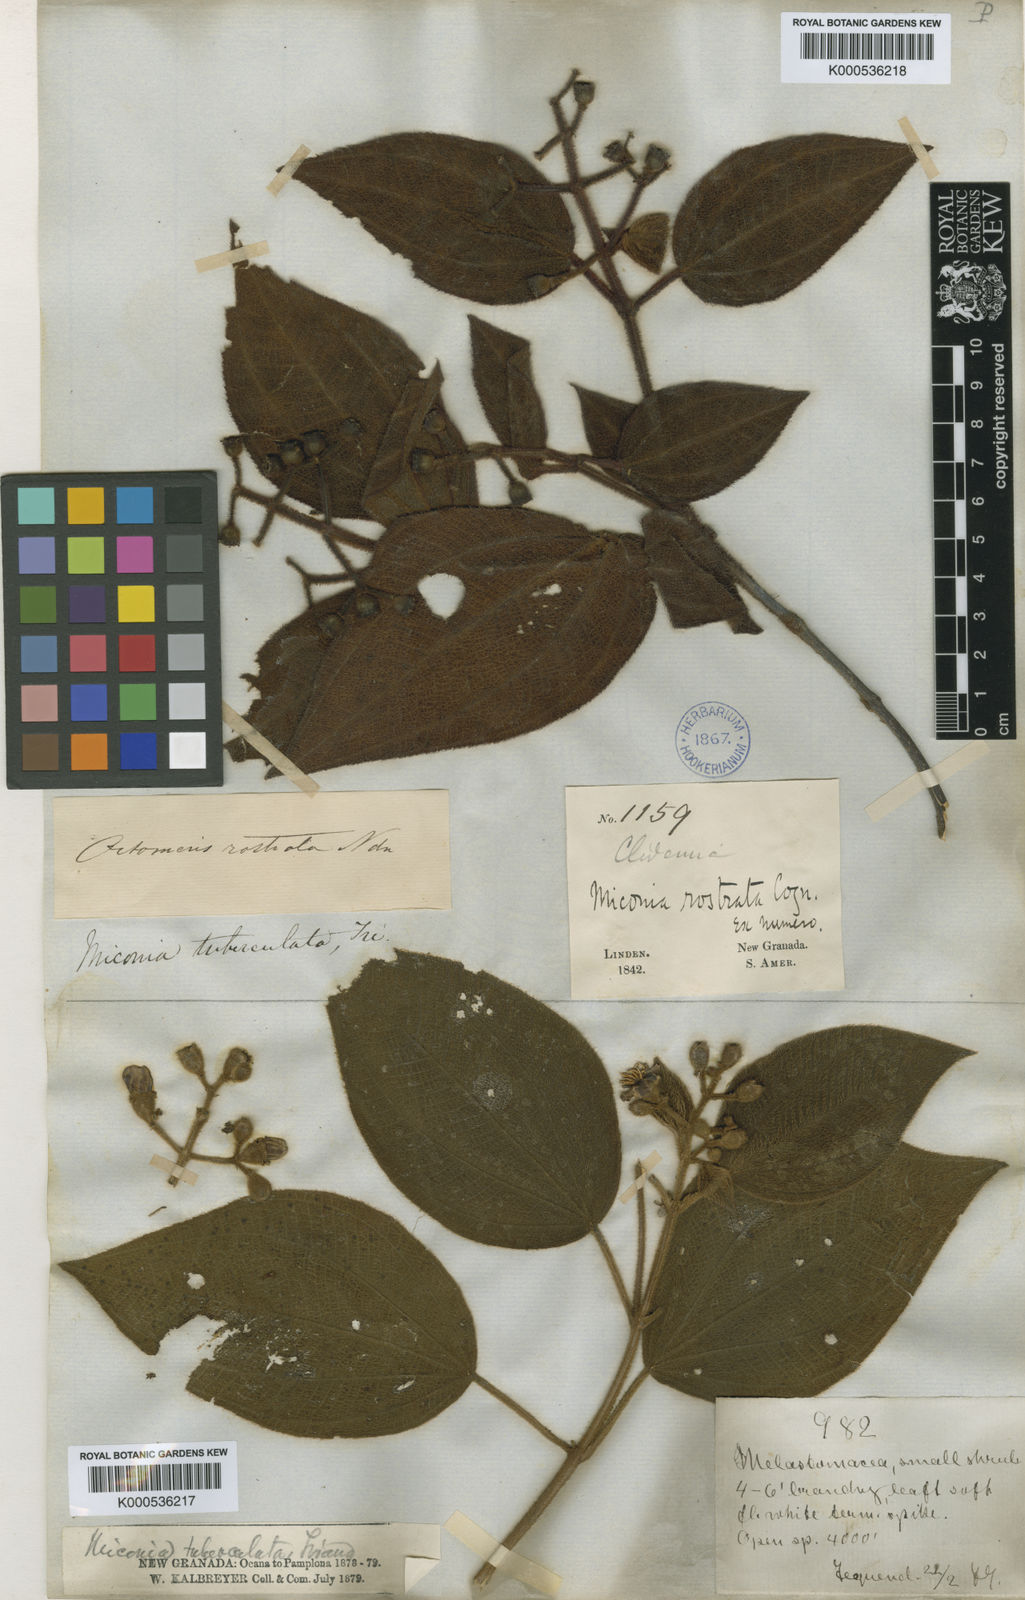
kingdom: Plantae
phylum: Tracheophyta
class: Magnoliopsida
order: Myrtales
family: Melastomataceae
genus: Miconia
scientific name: Miconia tuberculata
